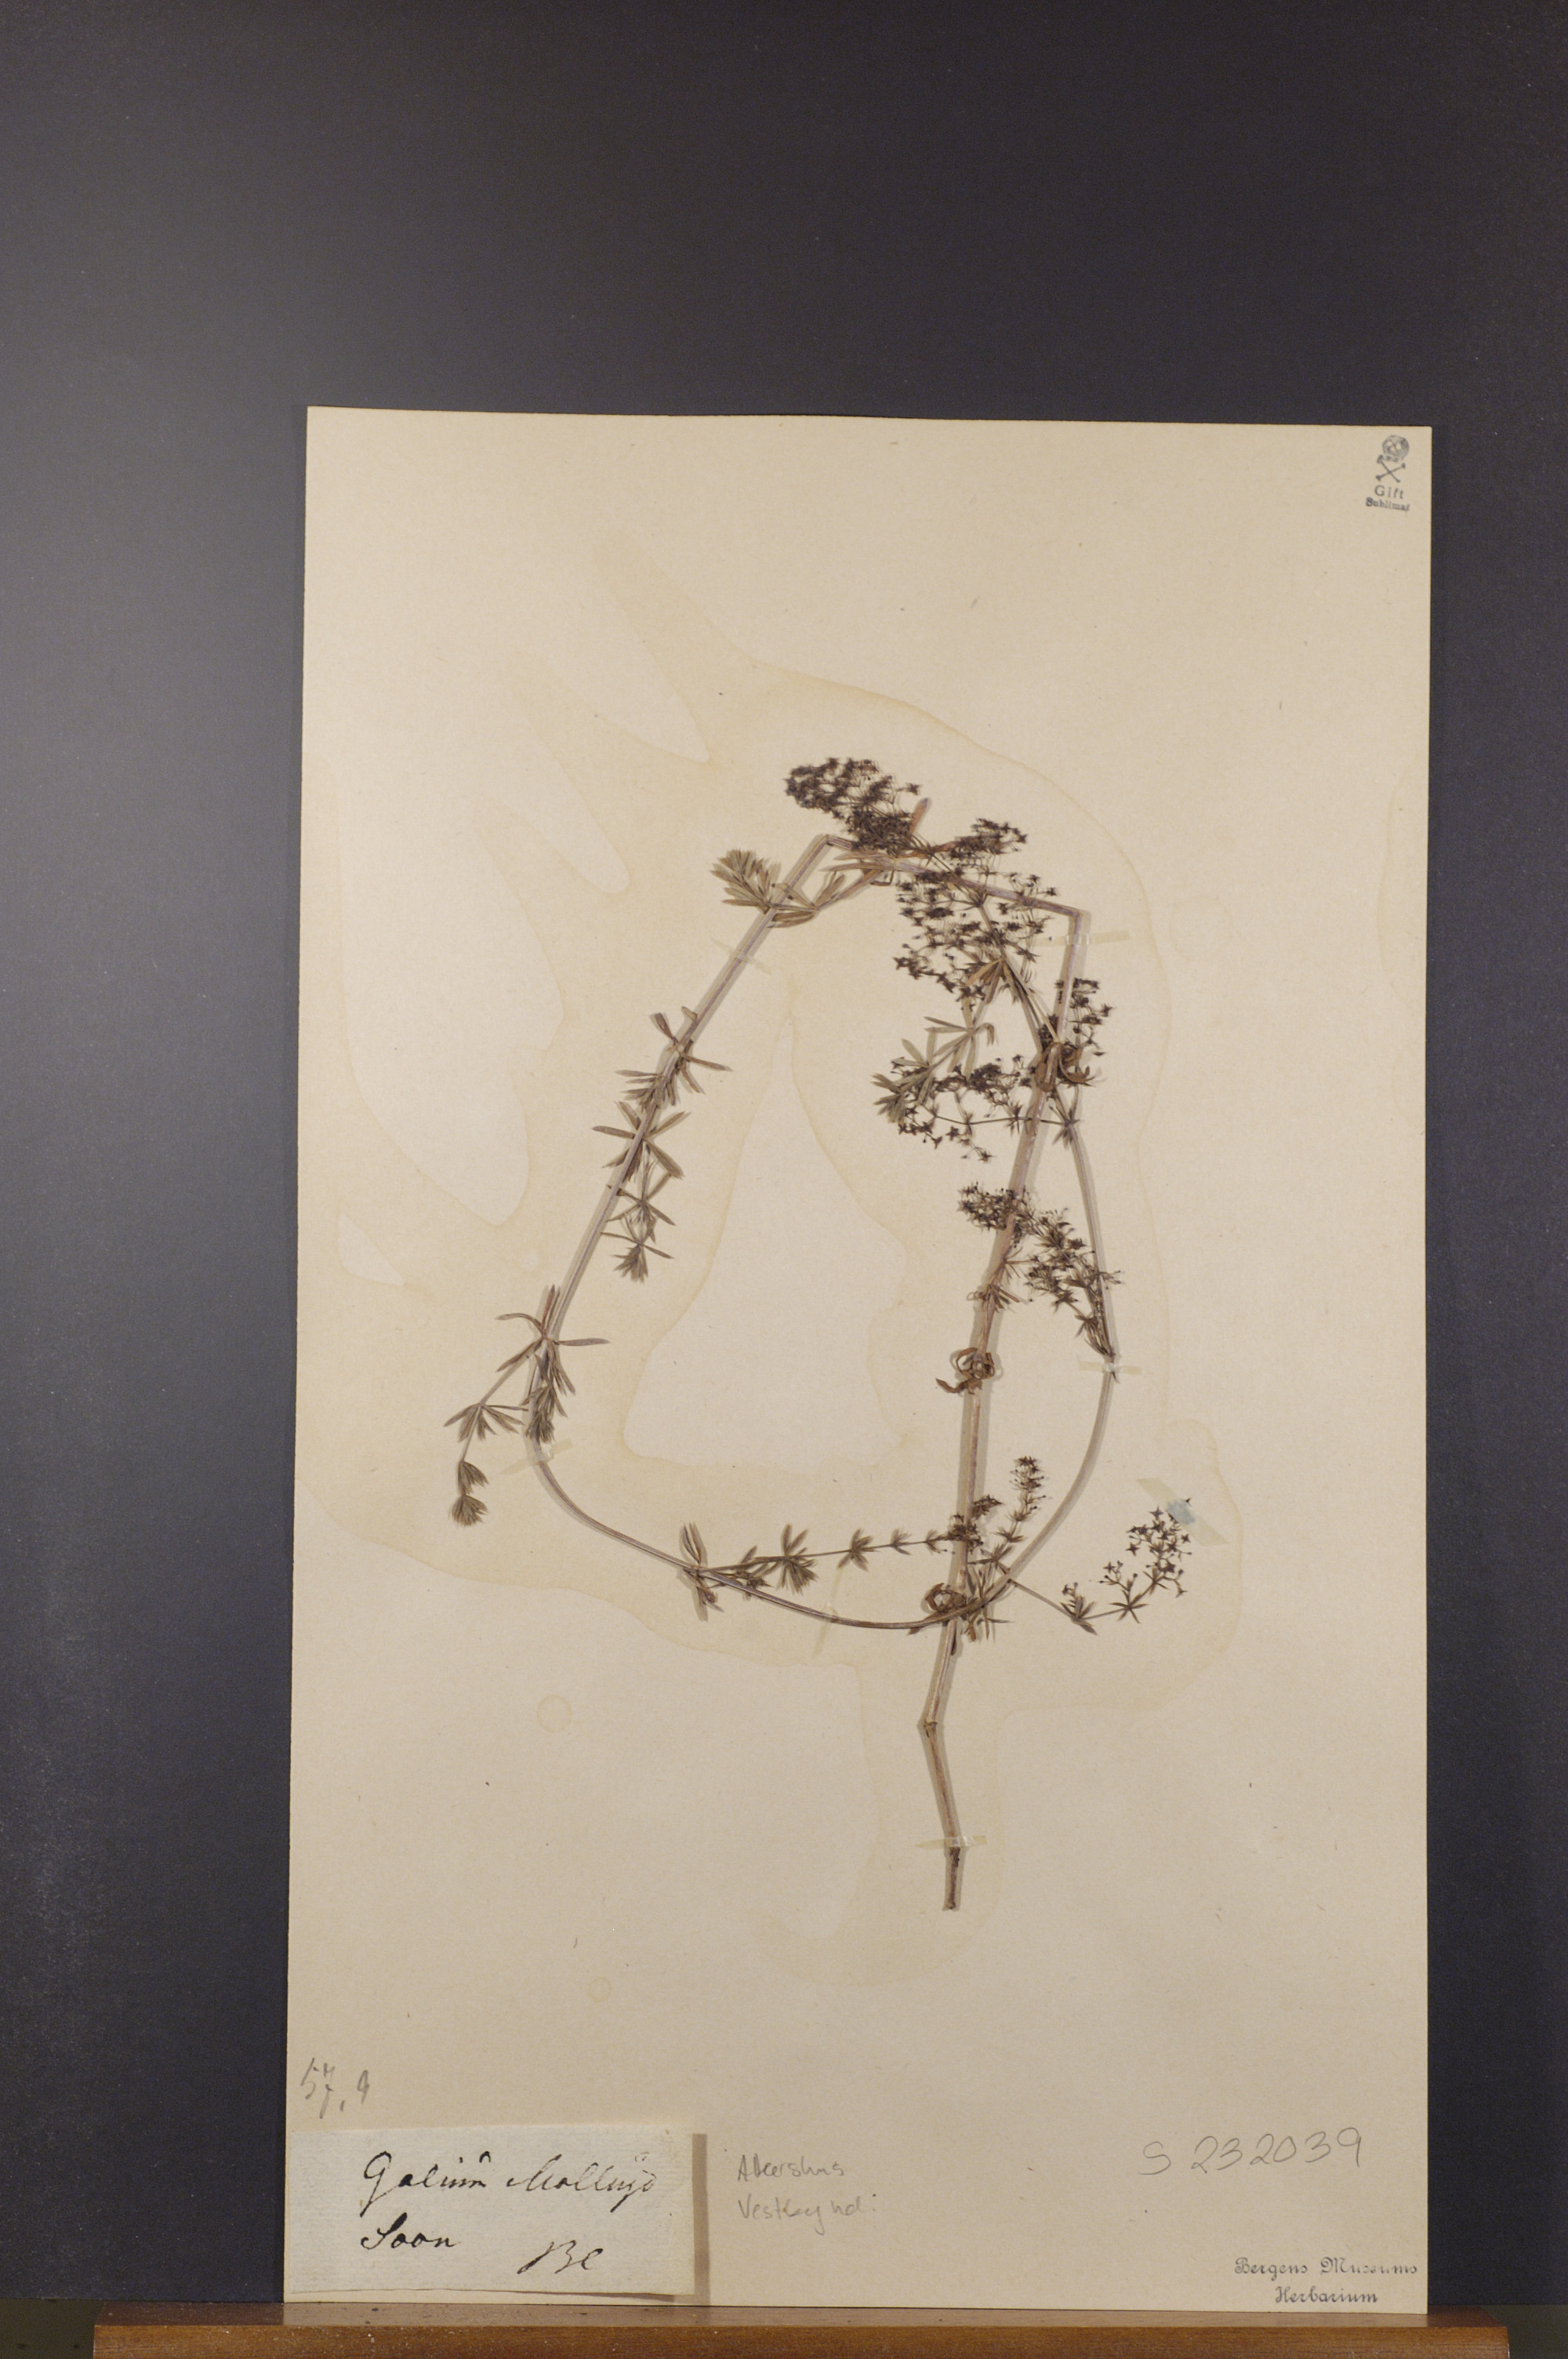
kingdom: Plantae
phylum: Tracheophyta
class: Magnoliopsida
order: Gentianales
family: Rubiaceae
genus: Galium
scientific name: Galium mollugo
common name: Hedge bedstraw
